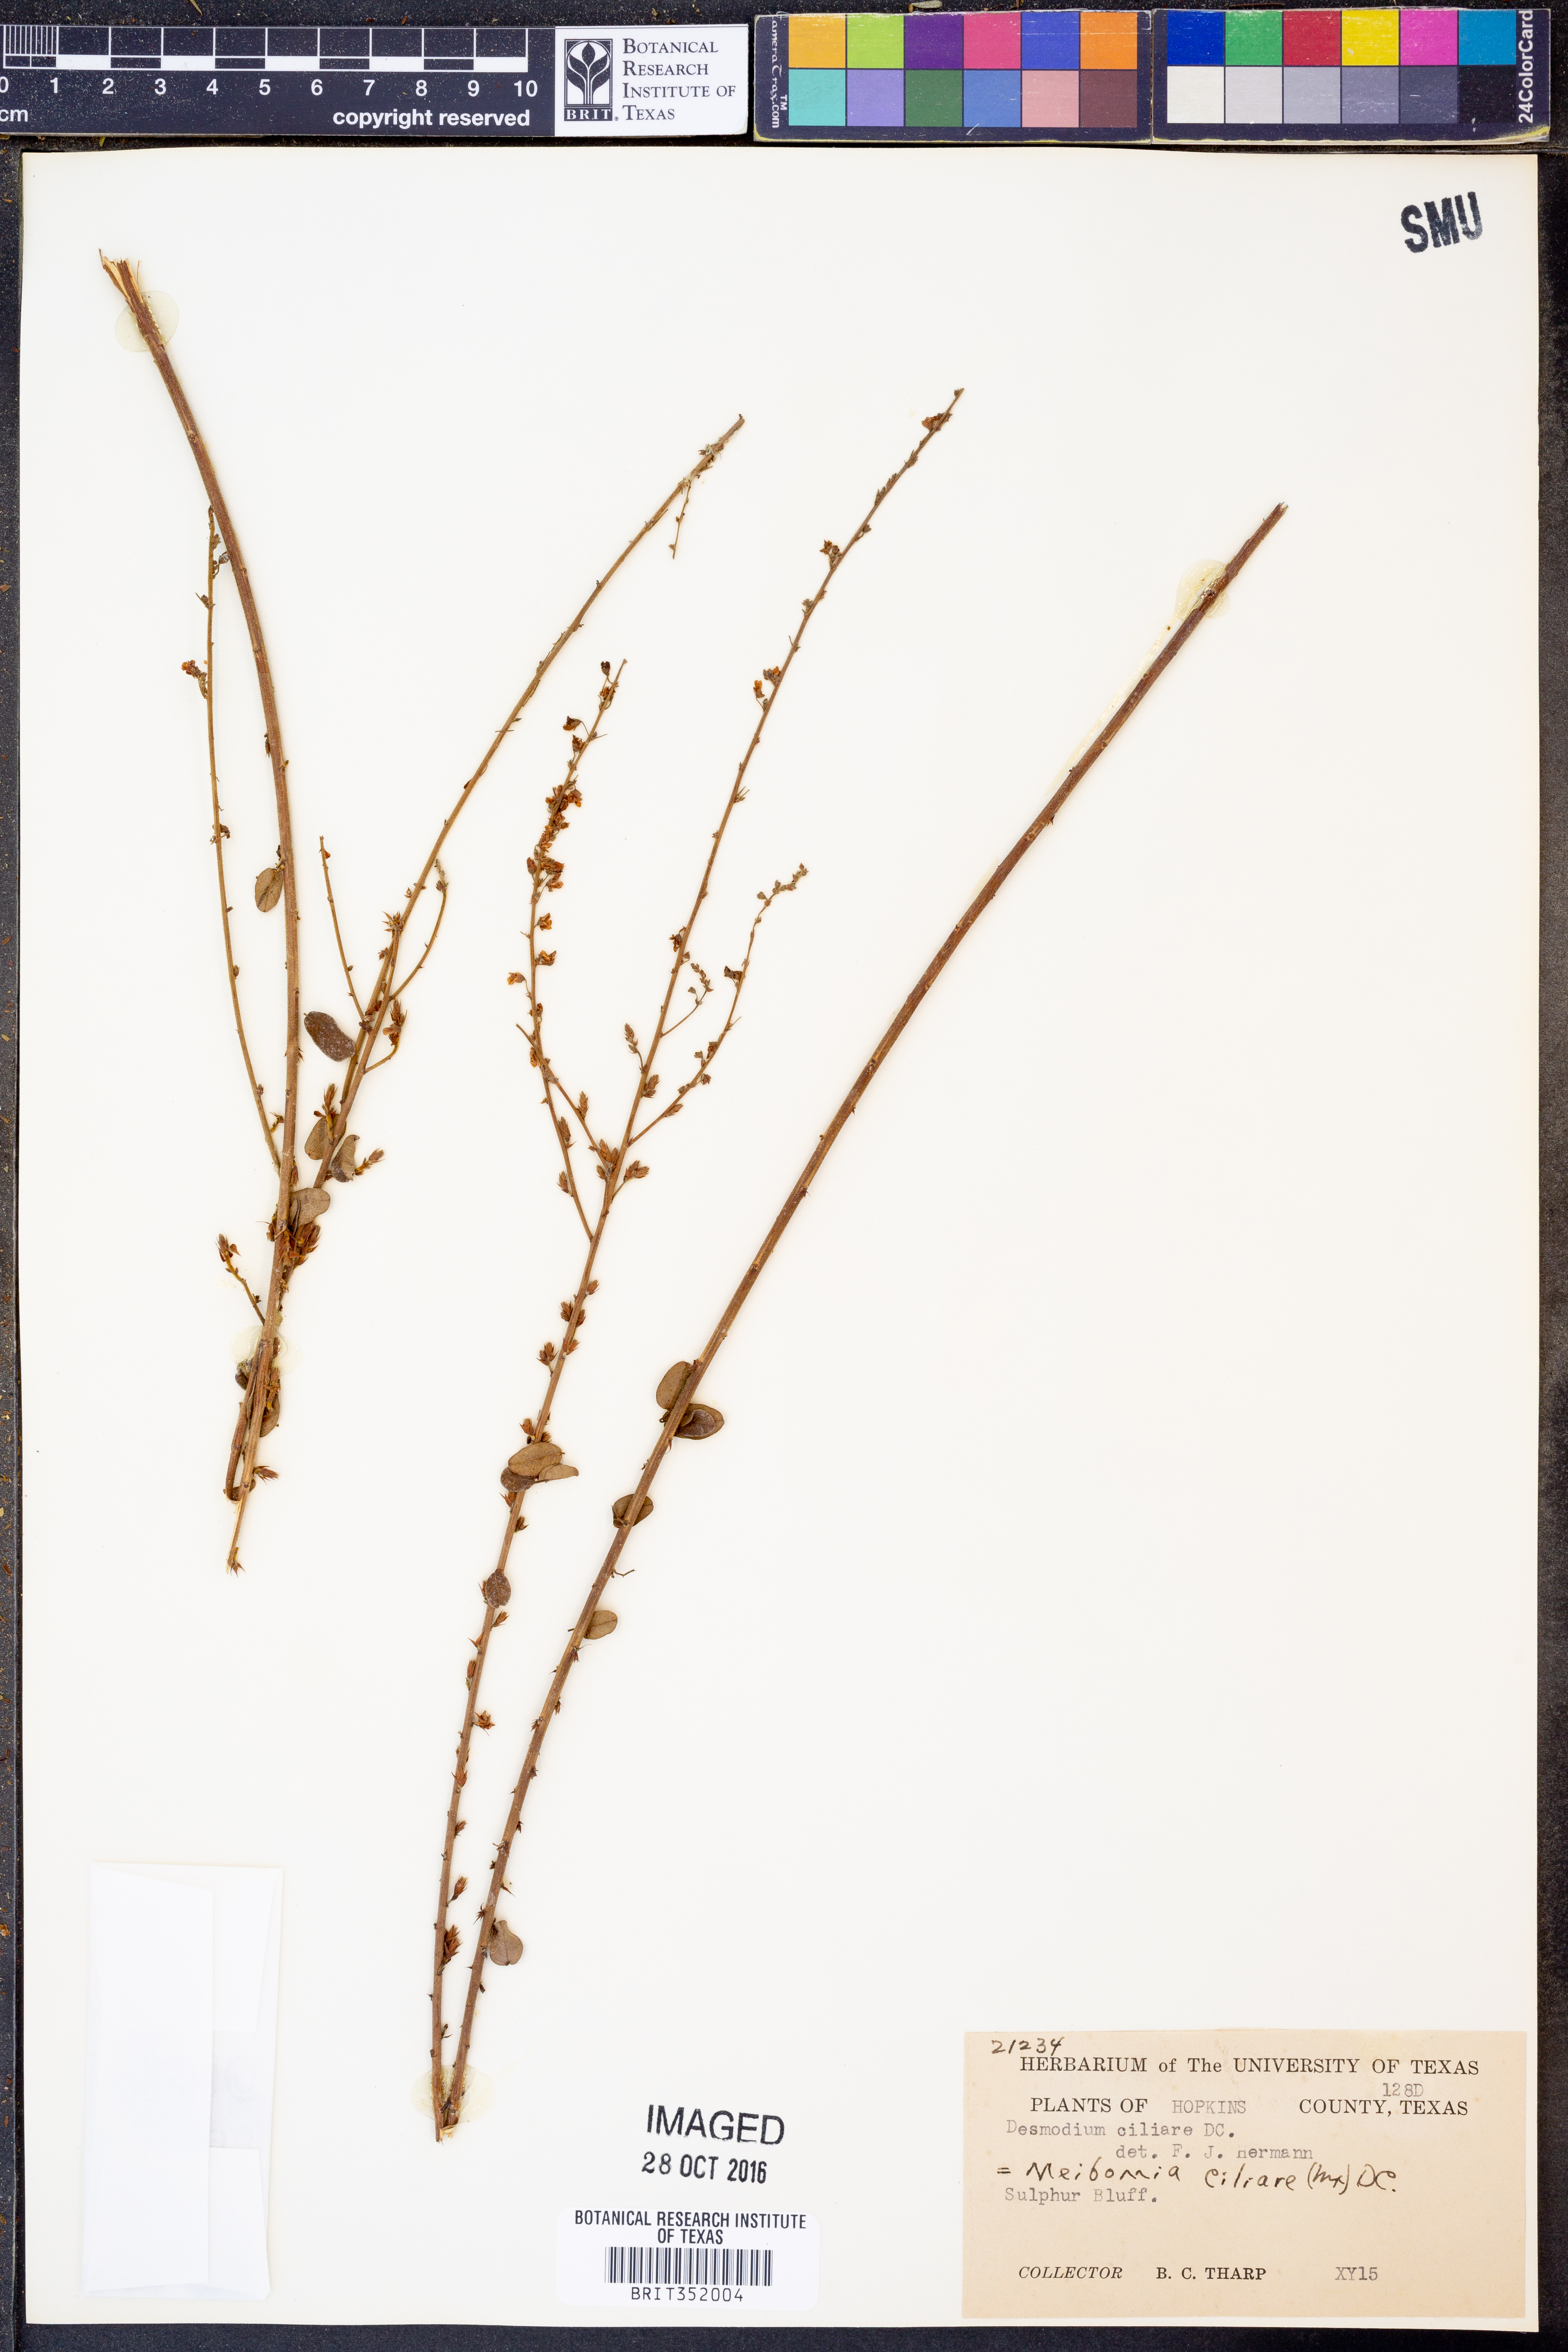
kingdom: Plantae
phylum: Tracheophyta
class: Magnoliopsida
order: Fabales
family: Fabaceae
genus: Desmodium
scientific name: Desmodium ciliare
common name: Hairy small-leaf ticktrefoil
